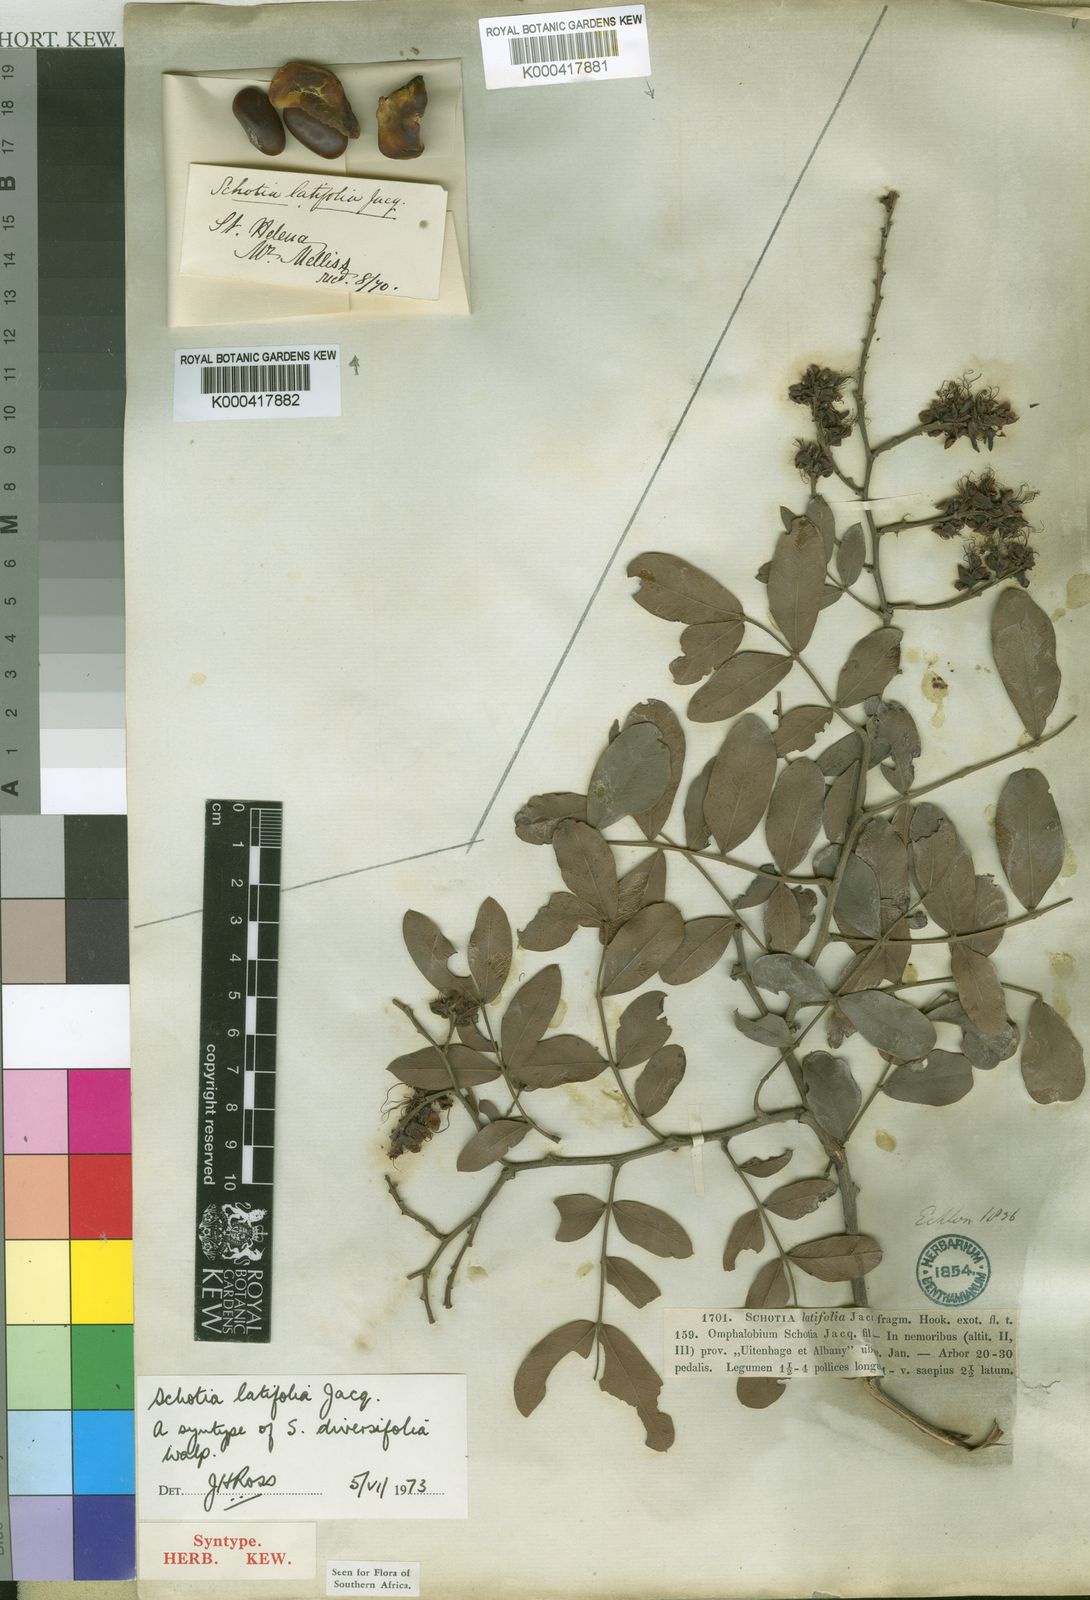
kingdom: Plantae
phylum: Tracheophyta
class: Magnoliopsida
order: Fabales
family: Fabaceae
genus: Schotia
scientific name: Schotia latifolia
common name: Bush boer-bean
